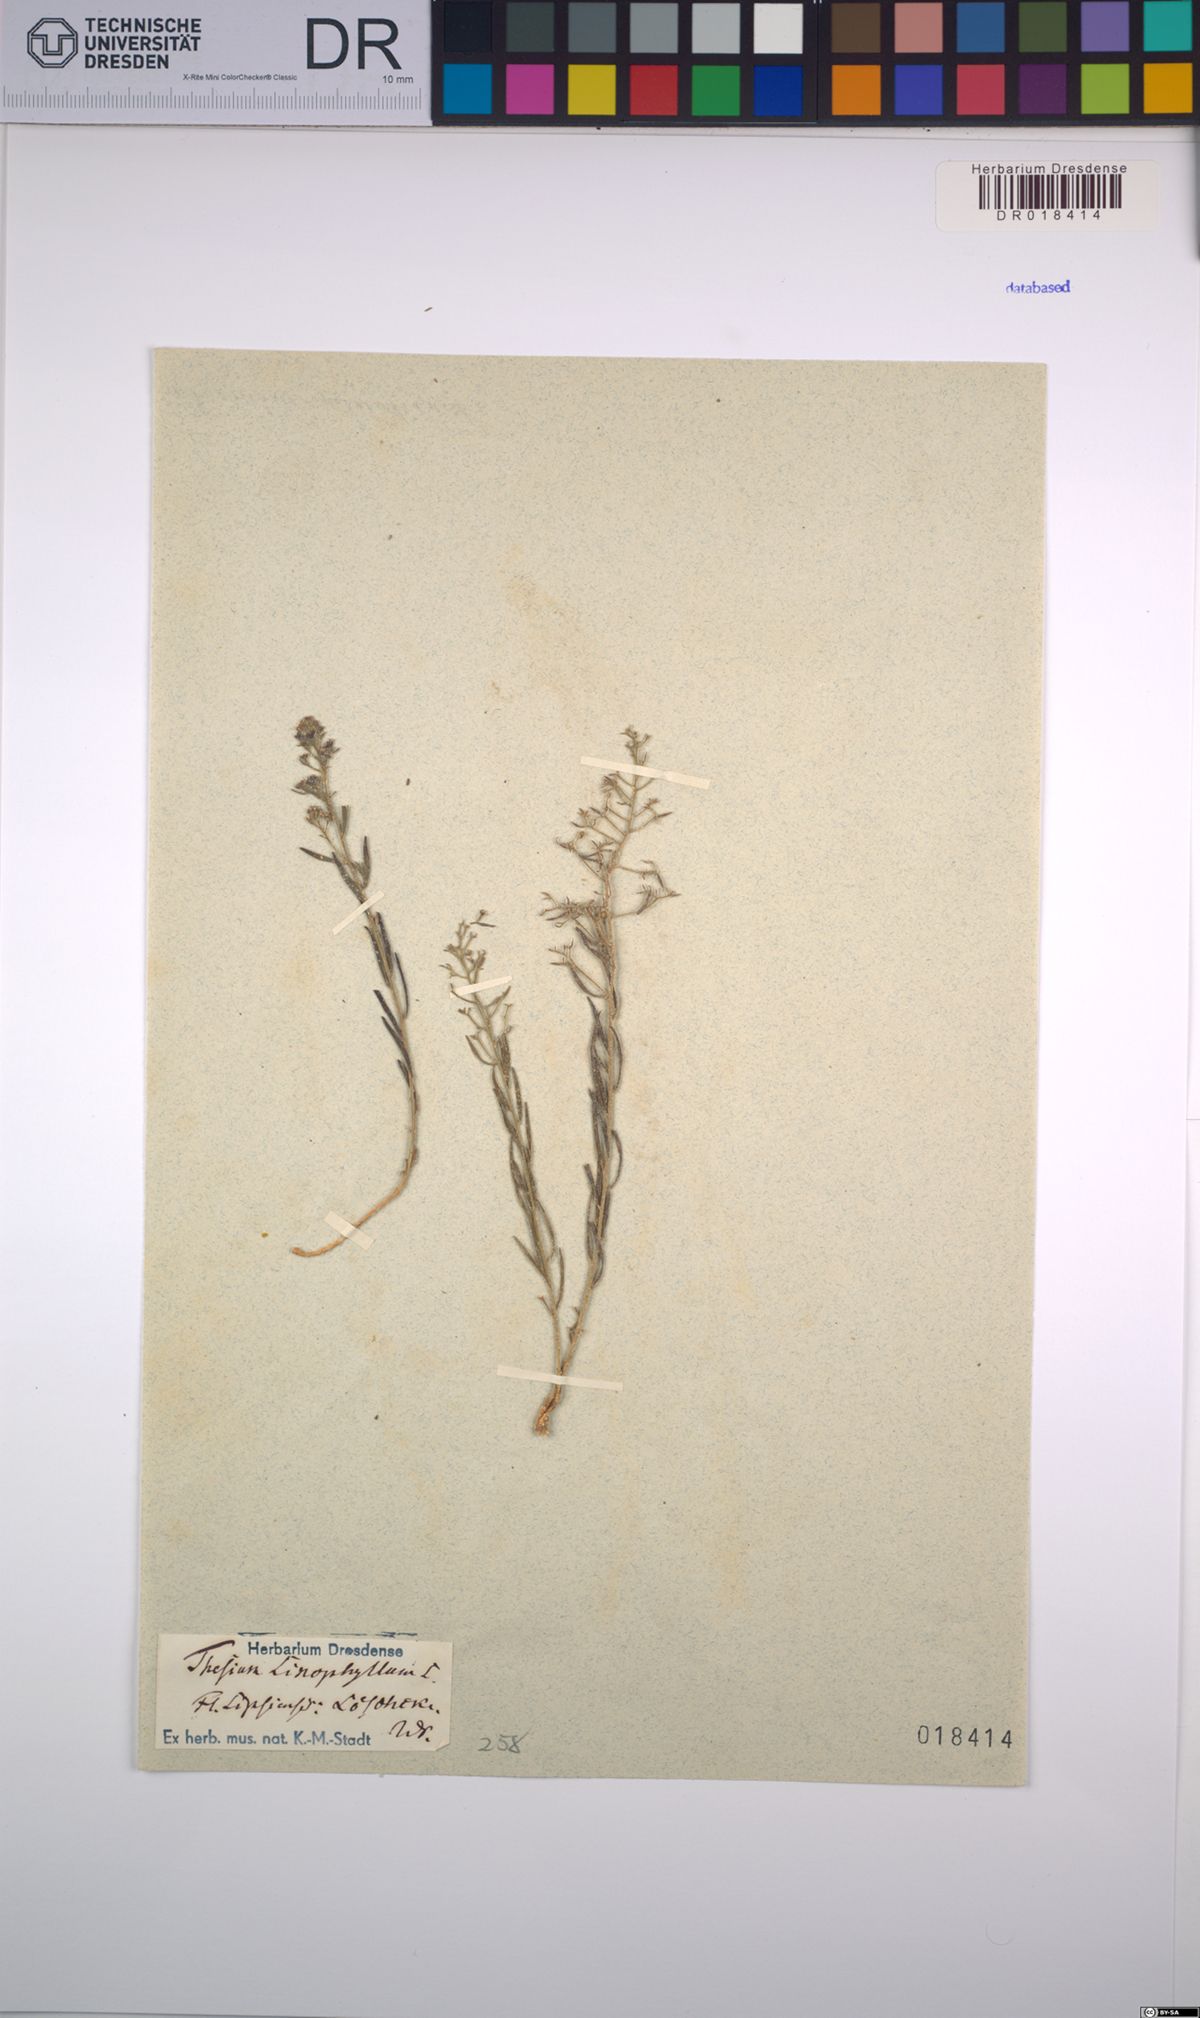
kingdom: Plantae
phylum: Tracheophyta
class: Magnoliopsida
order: Santalales
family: Thesiaceae
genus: Thesium
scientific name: Thesium linophyllon
